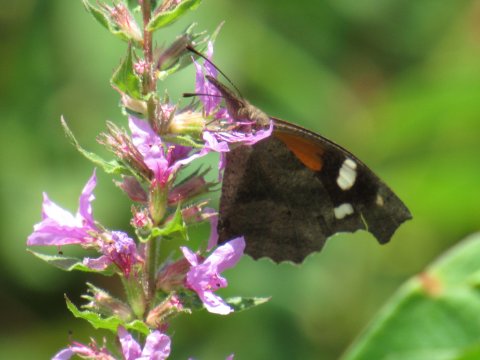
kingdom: Animalia
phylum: Arthropoda
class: Insecta
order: Lepidoptera
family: Nymphalidae
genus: Libytheana
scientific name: Libytheana carinenta
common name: American Snout
